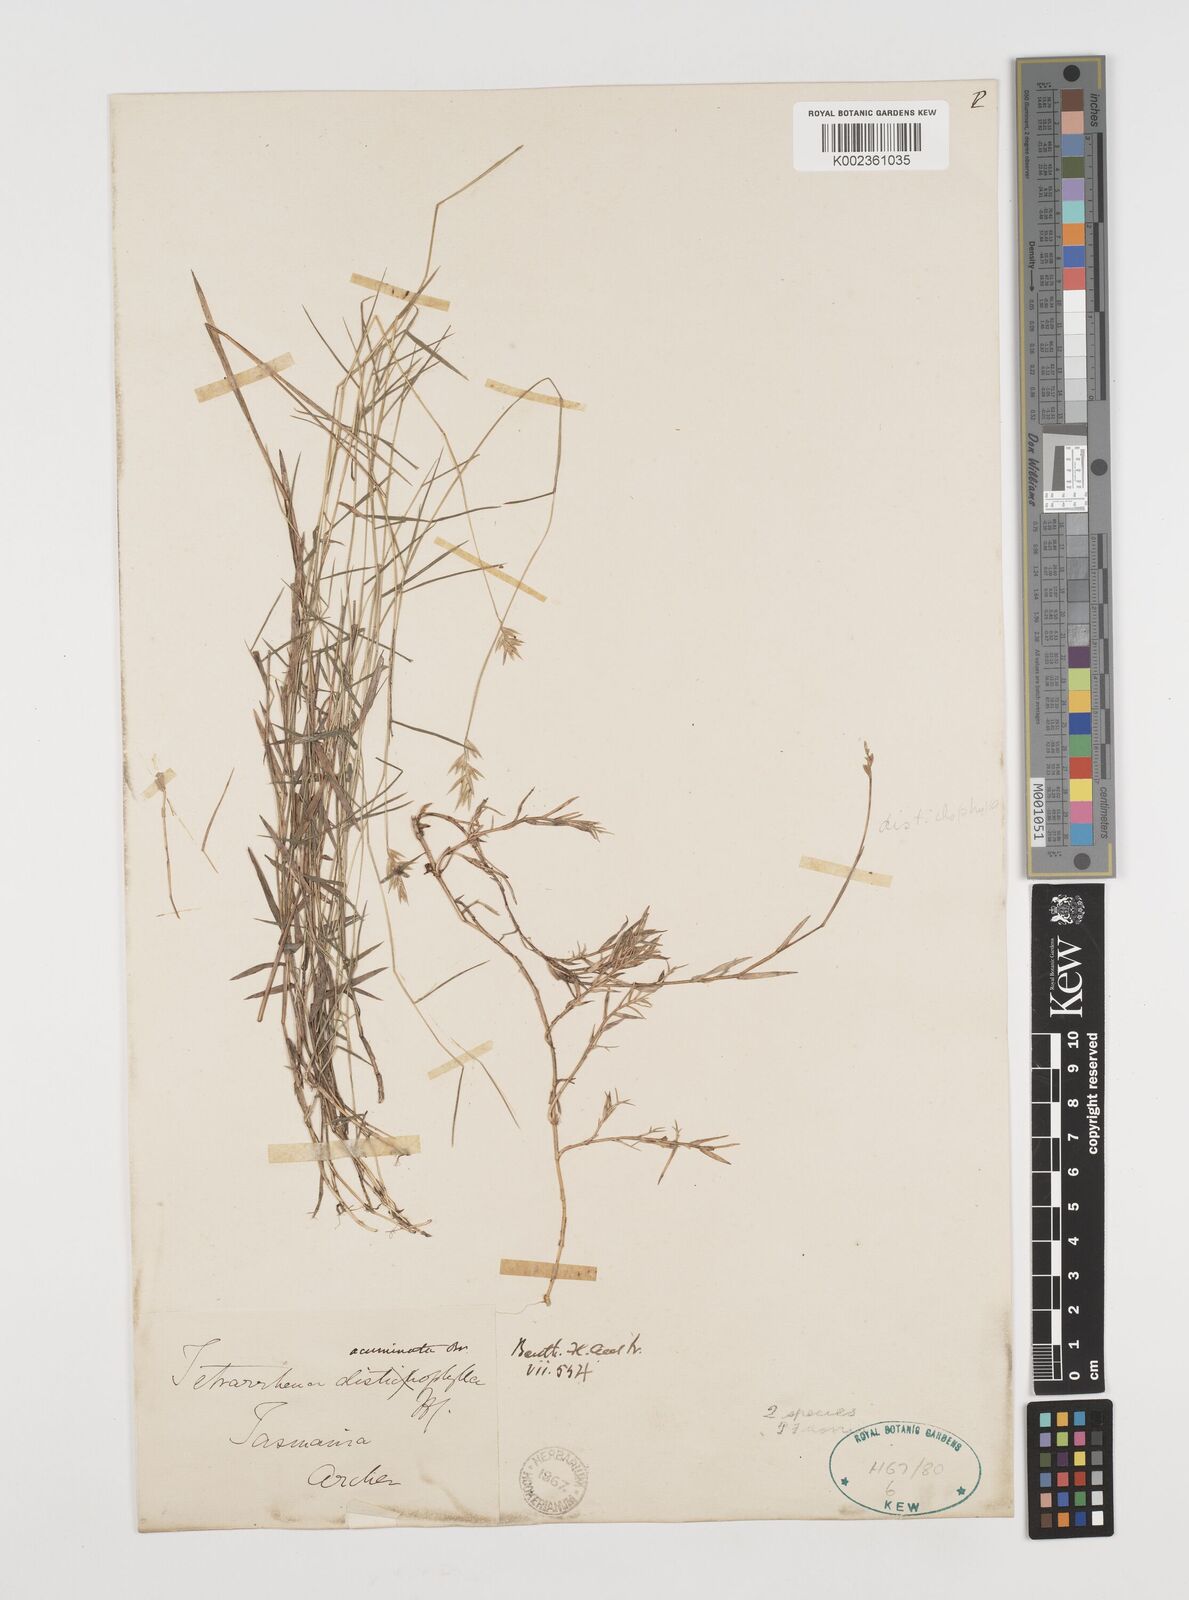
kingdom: Plantae
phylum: Tracheophyta
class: Liliopsida
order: Poales
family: Poaceae
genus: Tetrarrhena
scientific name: Tetrarrhena acuminata
